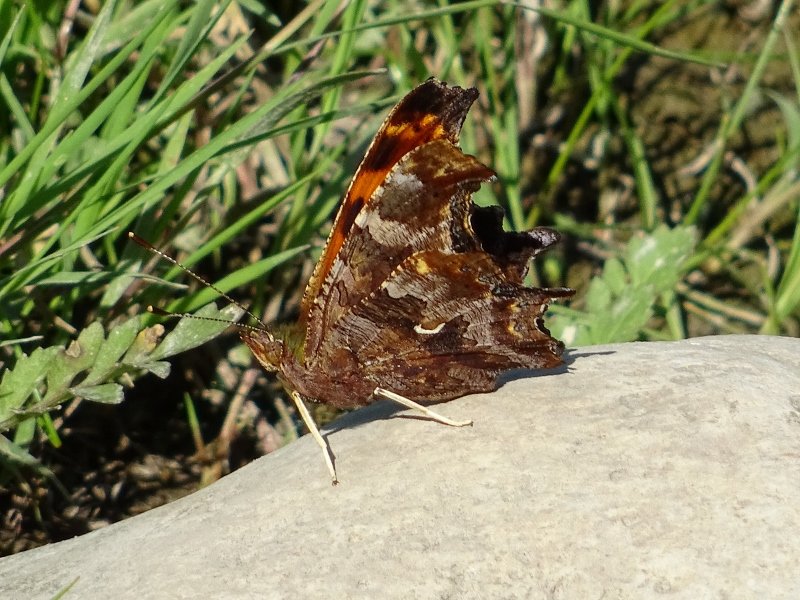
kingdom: Animalia
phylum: Arthropoda
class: Insecta
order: Lepidoptera
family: Nymphalidae
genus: Polygonia
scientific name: Polygonia comma
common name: Eastern Comma
